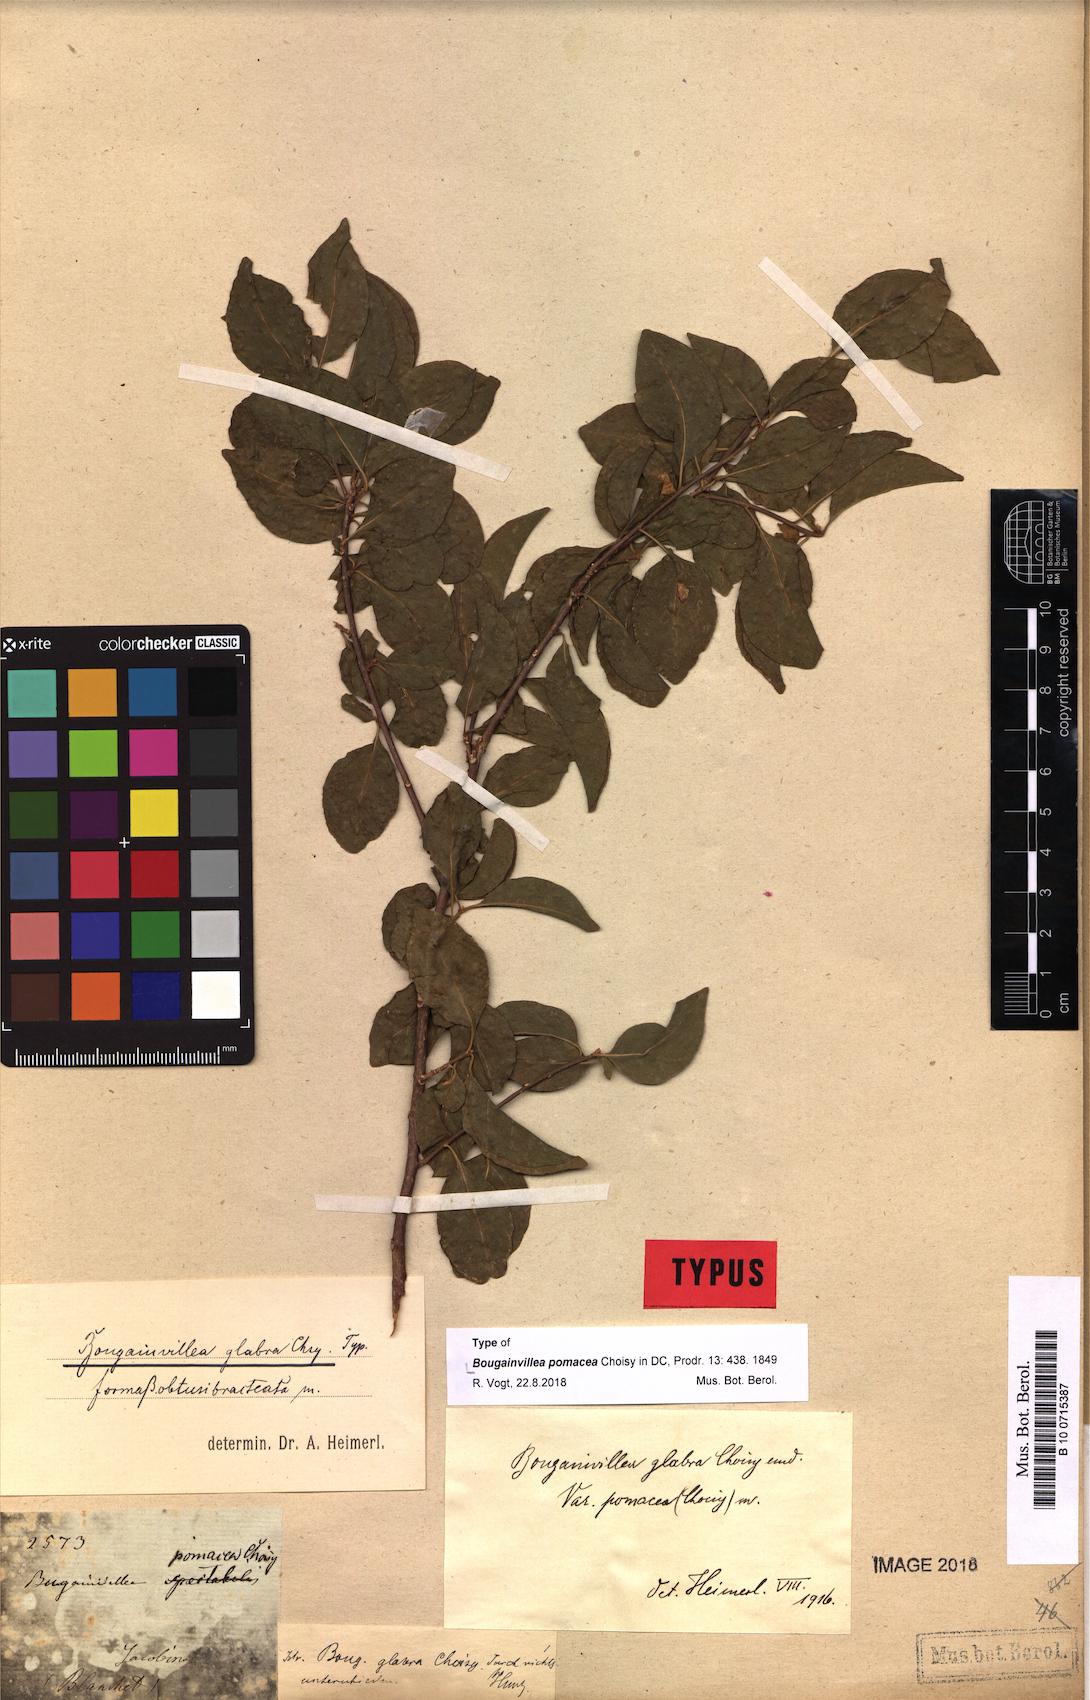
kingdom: Plantae
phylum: Tracheophyta
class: Magnoliopsida
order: Caryophyllales
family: Nyctaginaceae
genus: Bougainvillea
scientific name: Bougainvillea pomacea
